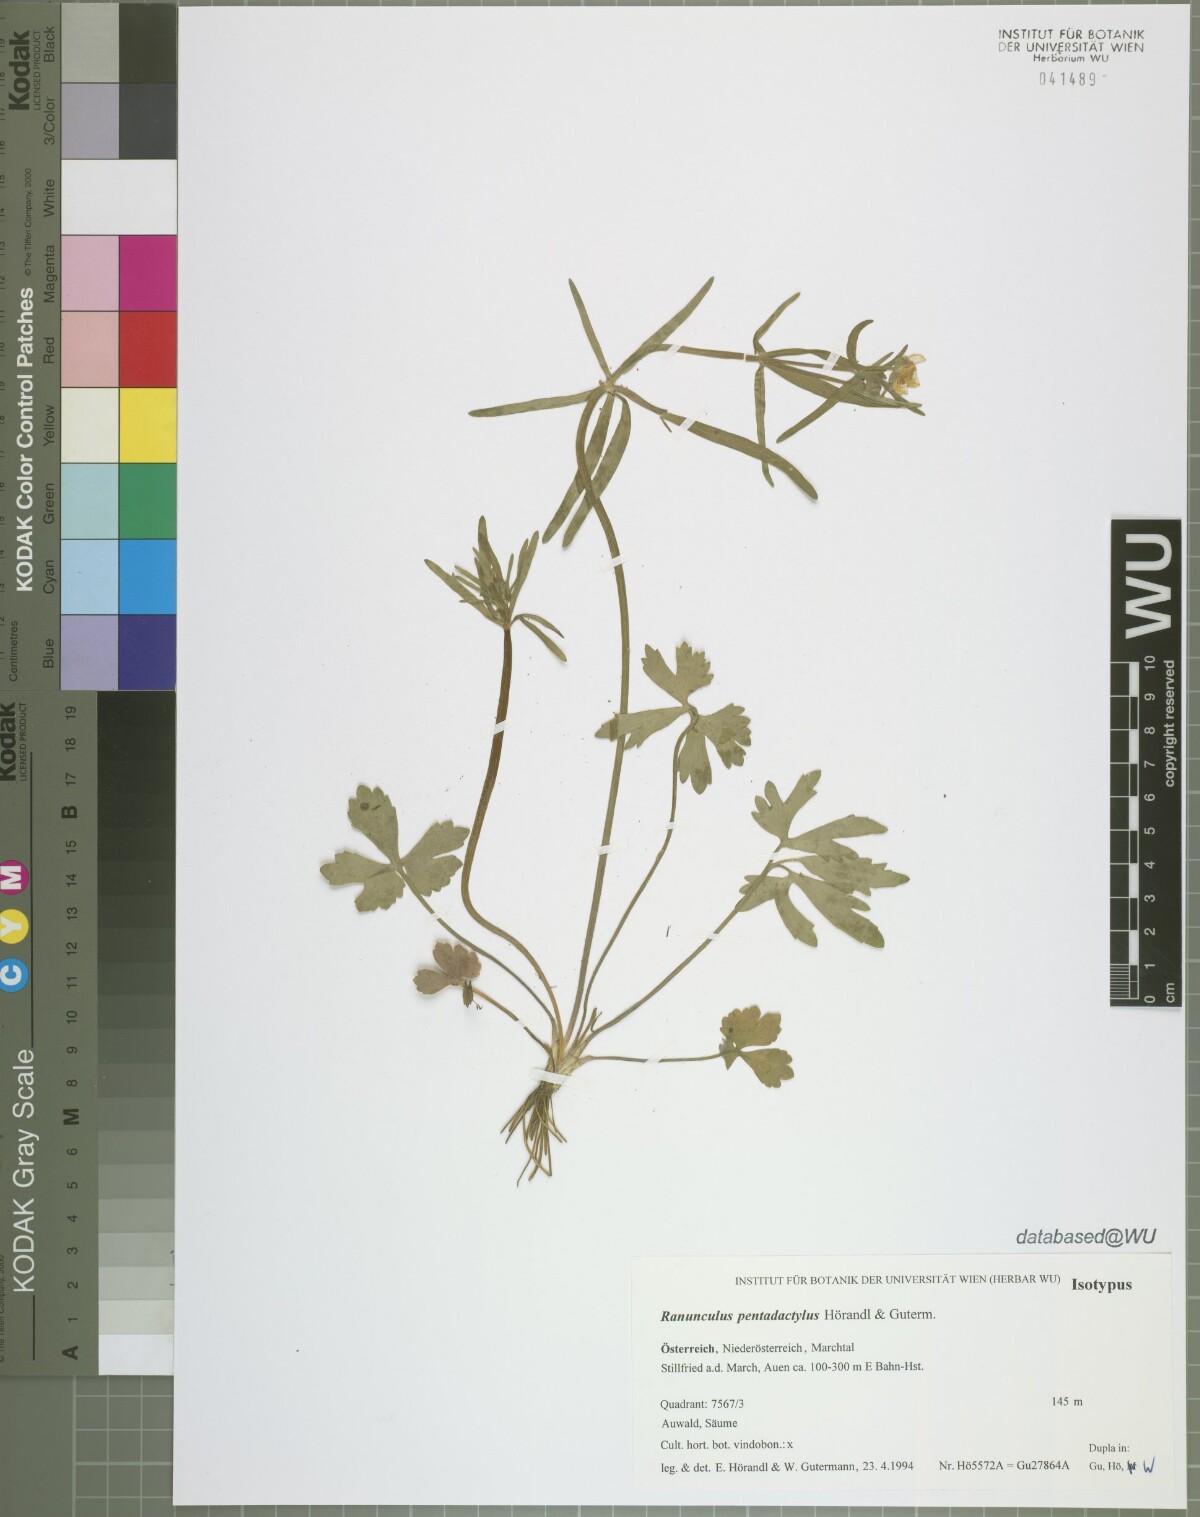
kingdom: Plantae
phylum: Tracheophyta
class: Magnoliopsida
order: Ranunculales
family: Ranunculaceae
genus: Ranunculus
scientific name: Ranunculus pentadactylus
